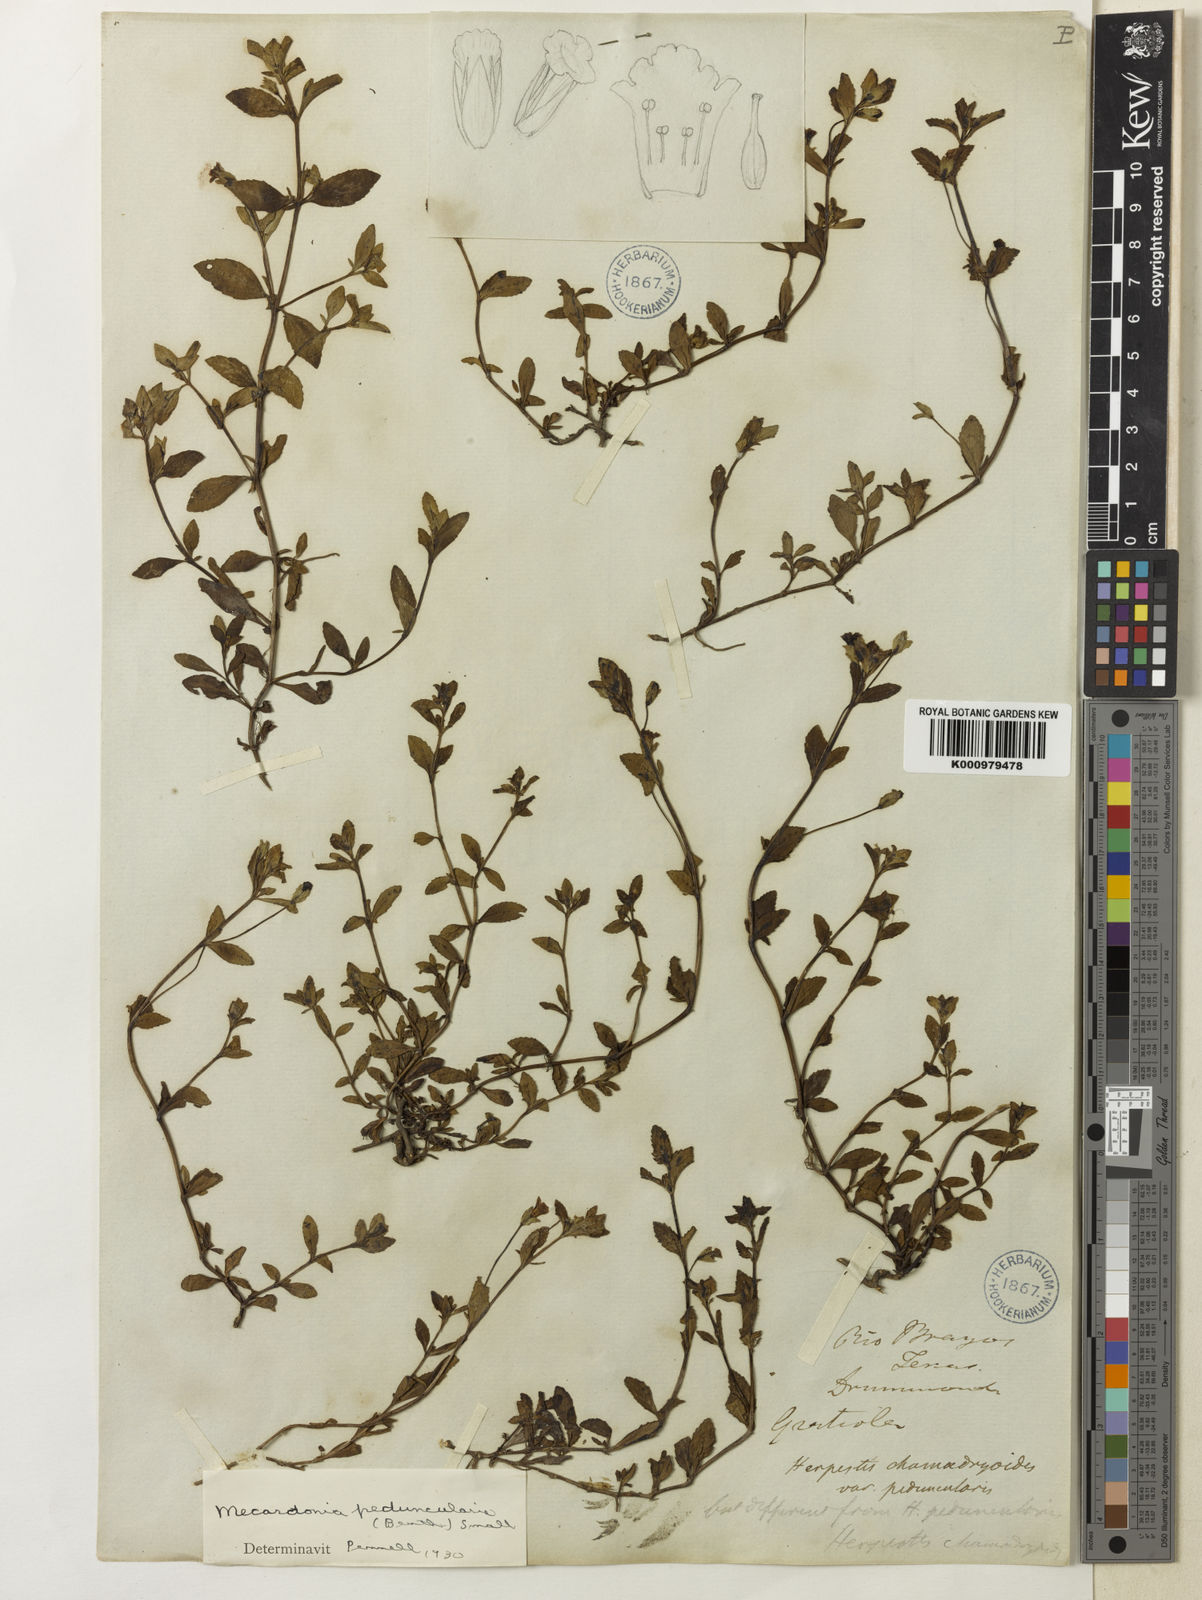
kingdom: Plantae
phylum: Tracheophyta
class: Magnoliopsida
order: Lamiales
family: Plantaginaceae
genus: Mecardonia
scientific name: Mecardonia procumbens
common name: Baby jump-up
